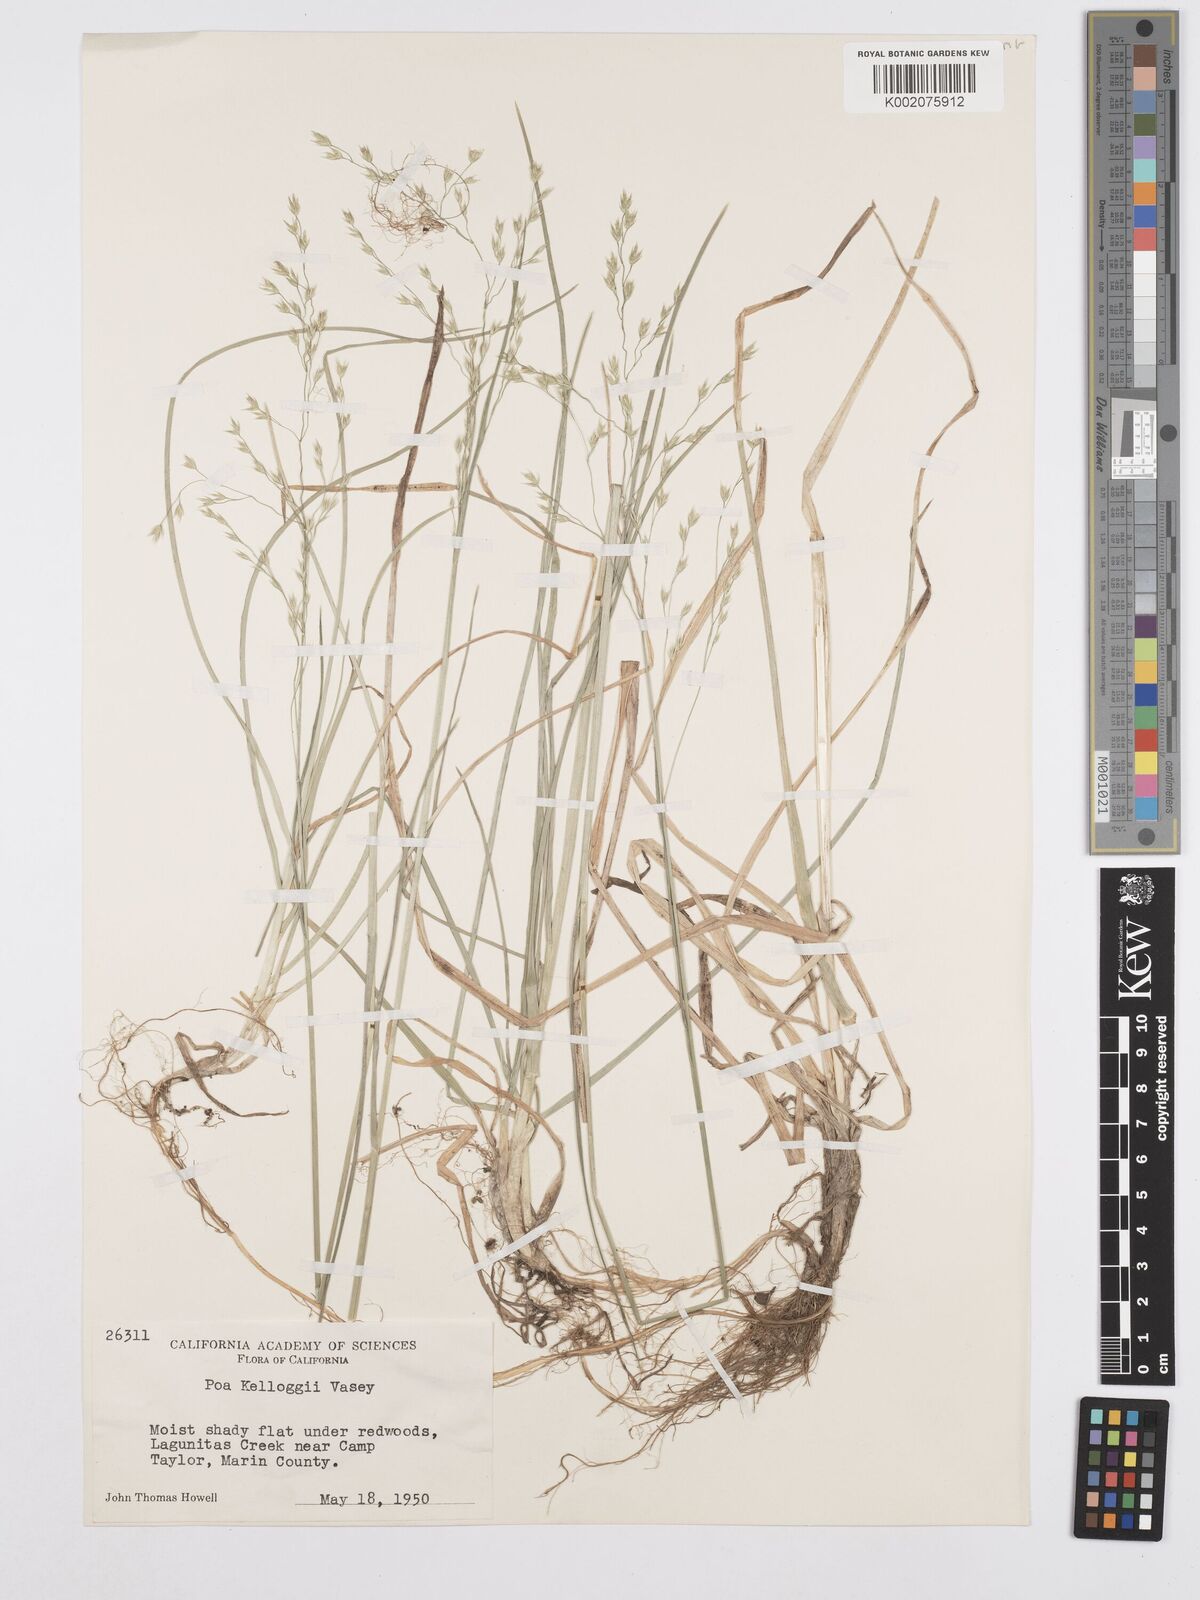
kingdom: Plantae
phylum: Tracheophyta
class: Liliopsida
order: Poales
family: Poaceae
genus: Poa
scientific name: Poa kelloggii
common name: Kellogg's bluegrass
